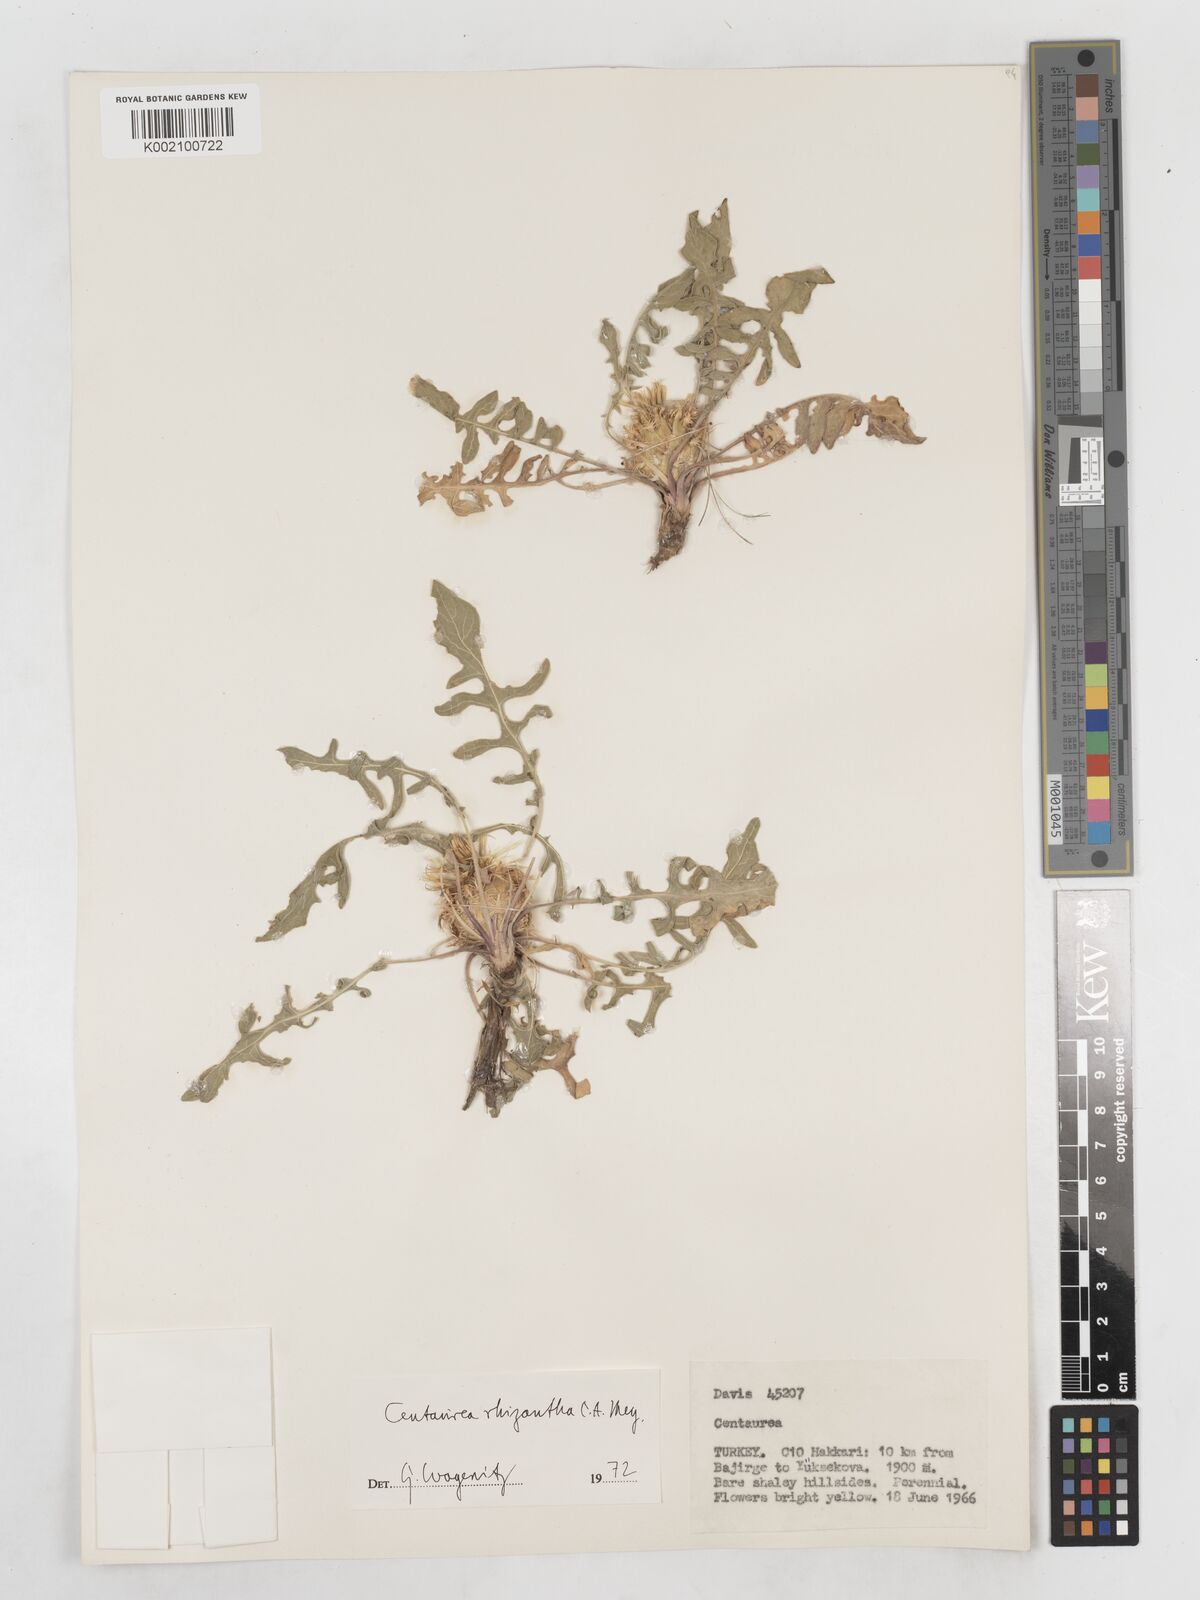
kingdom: Plantae
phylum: Tracheophyta
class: Magnoliopsida
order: Asterales
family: Asteraceae
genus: Centaurea
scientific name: Centaurea rhizantha
